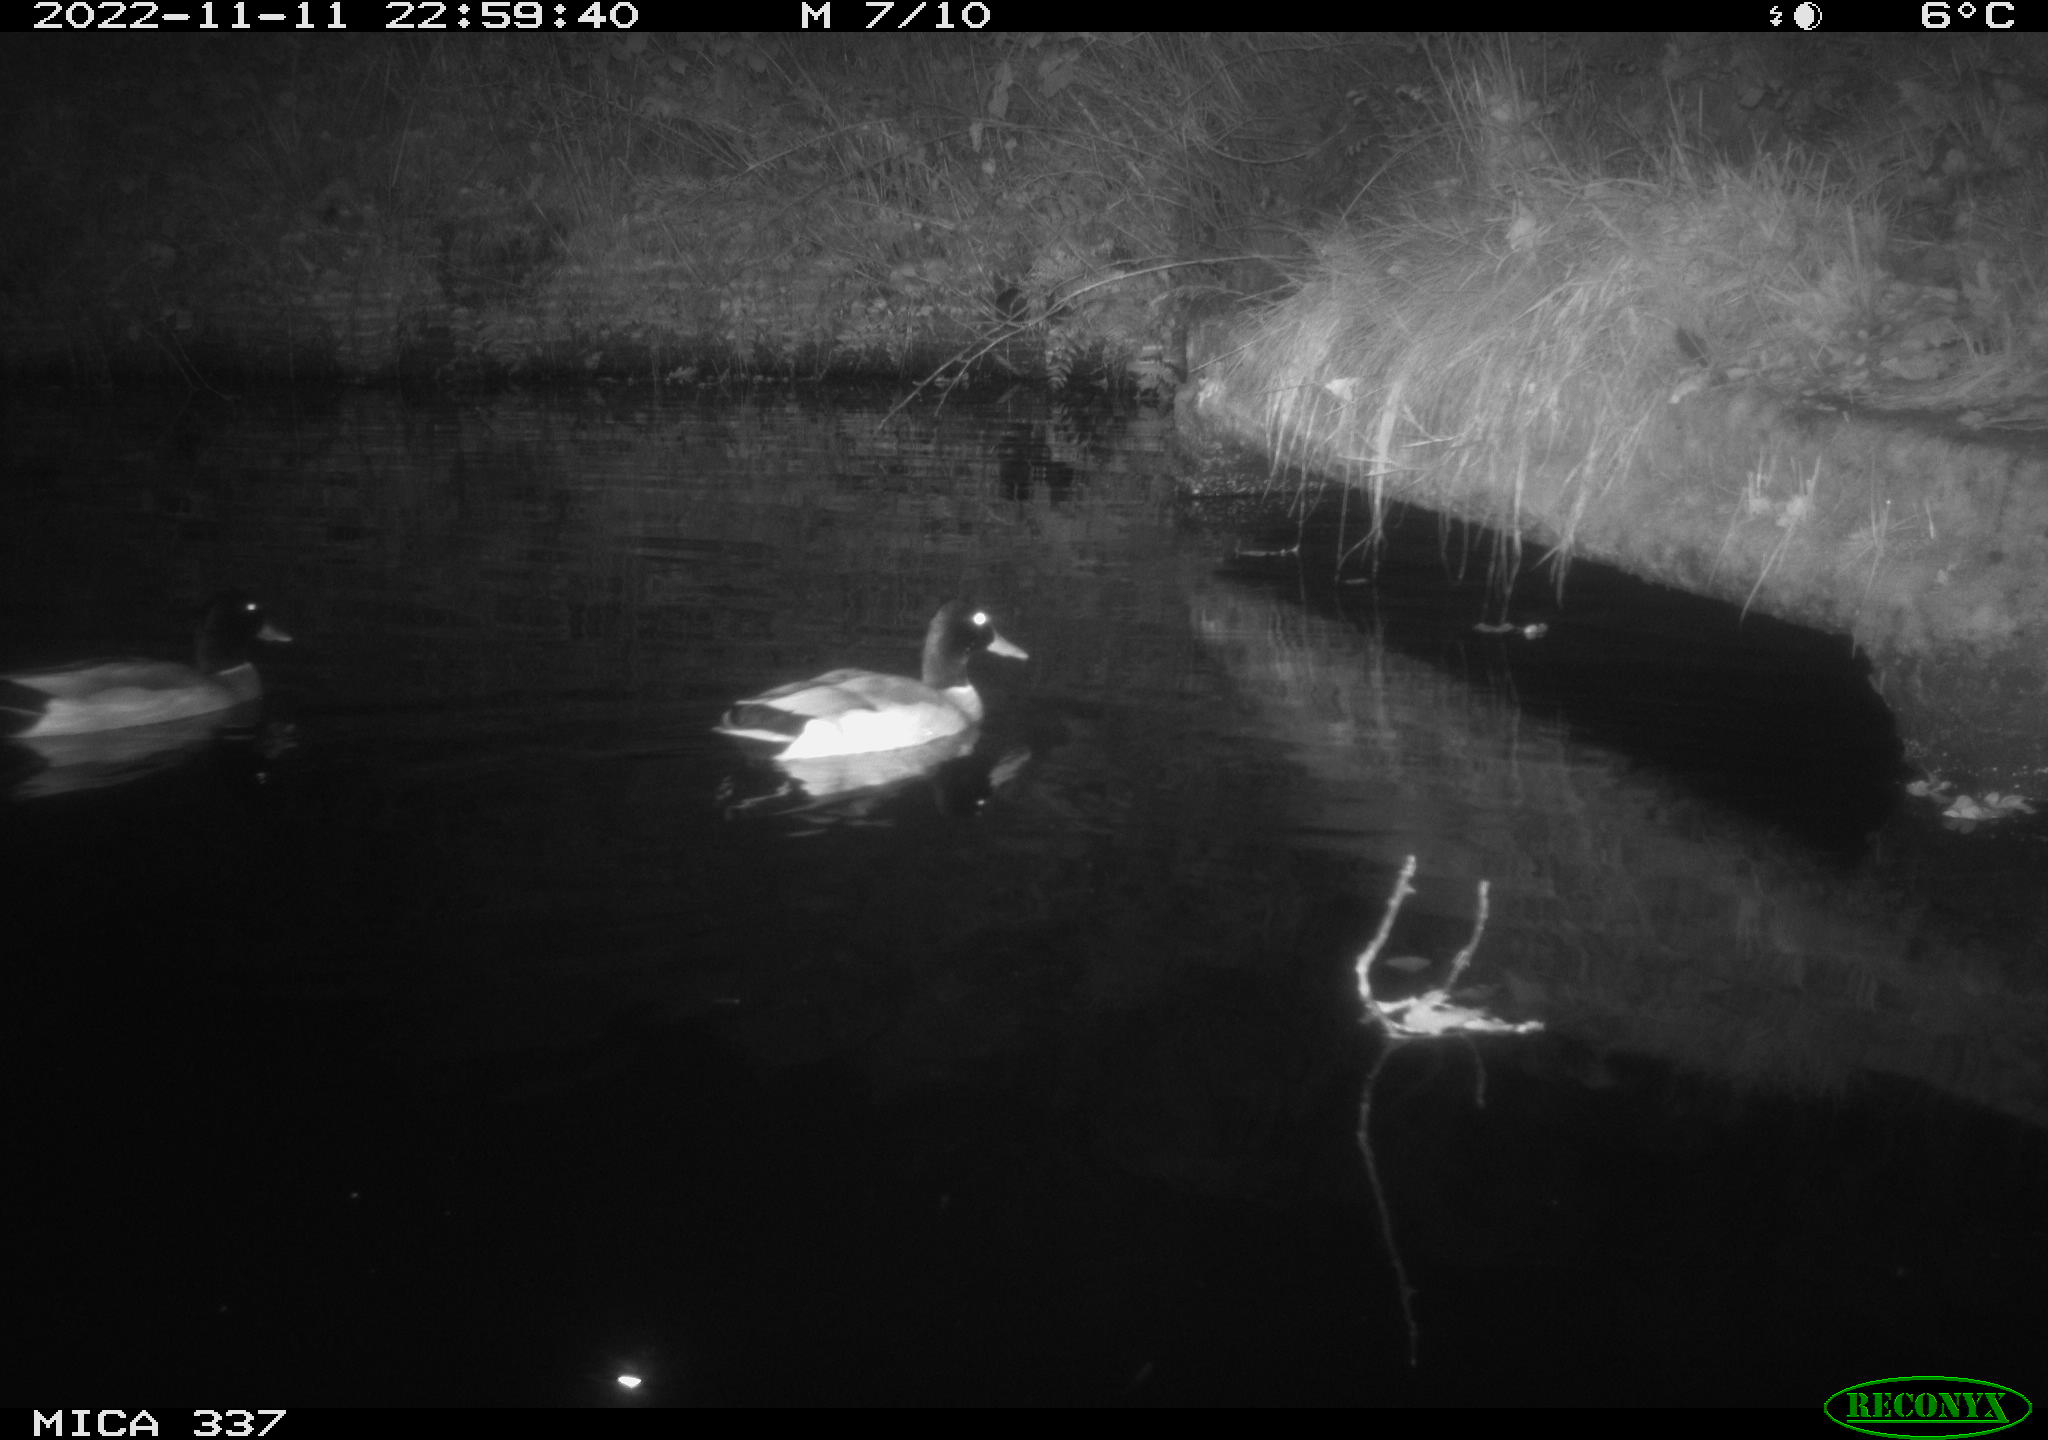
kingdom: Animalia
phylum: Chordata
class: Aves
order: Anseriformes
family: Anatidae
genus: Anas
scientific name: Anas platyrhynchos
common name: Mallard
